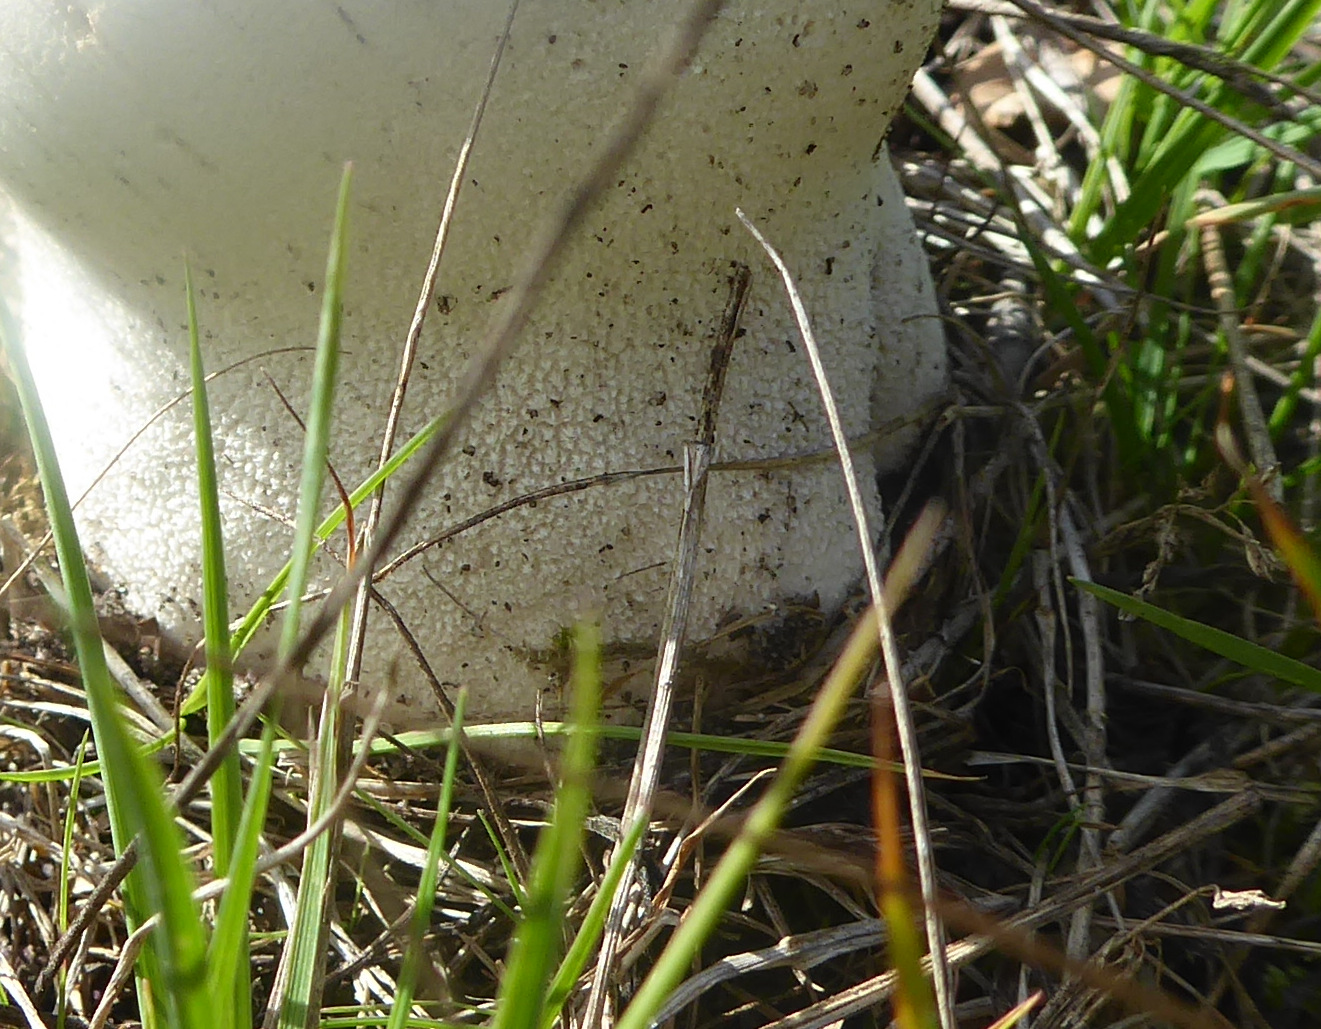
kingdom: Fungi
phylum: Basidiomycota
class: Agaricomycetes
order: Agaricales
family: Lycoperdaceae
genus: Bovistella
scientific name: Bovistella utriformis
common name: skællet støvbold
